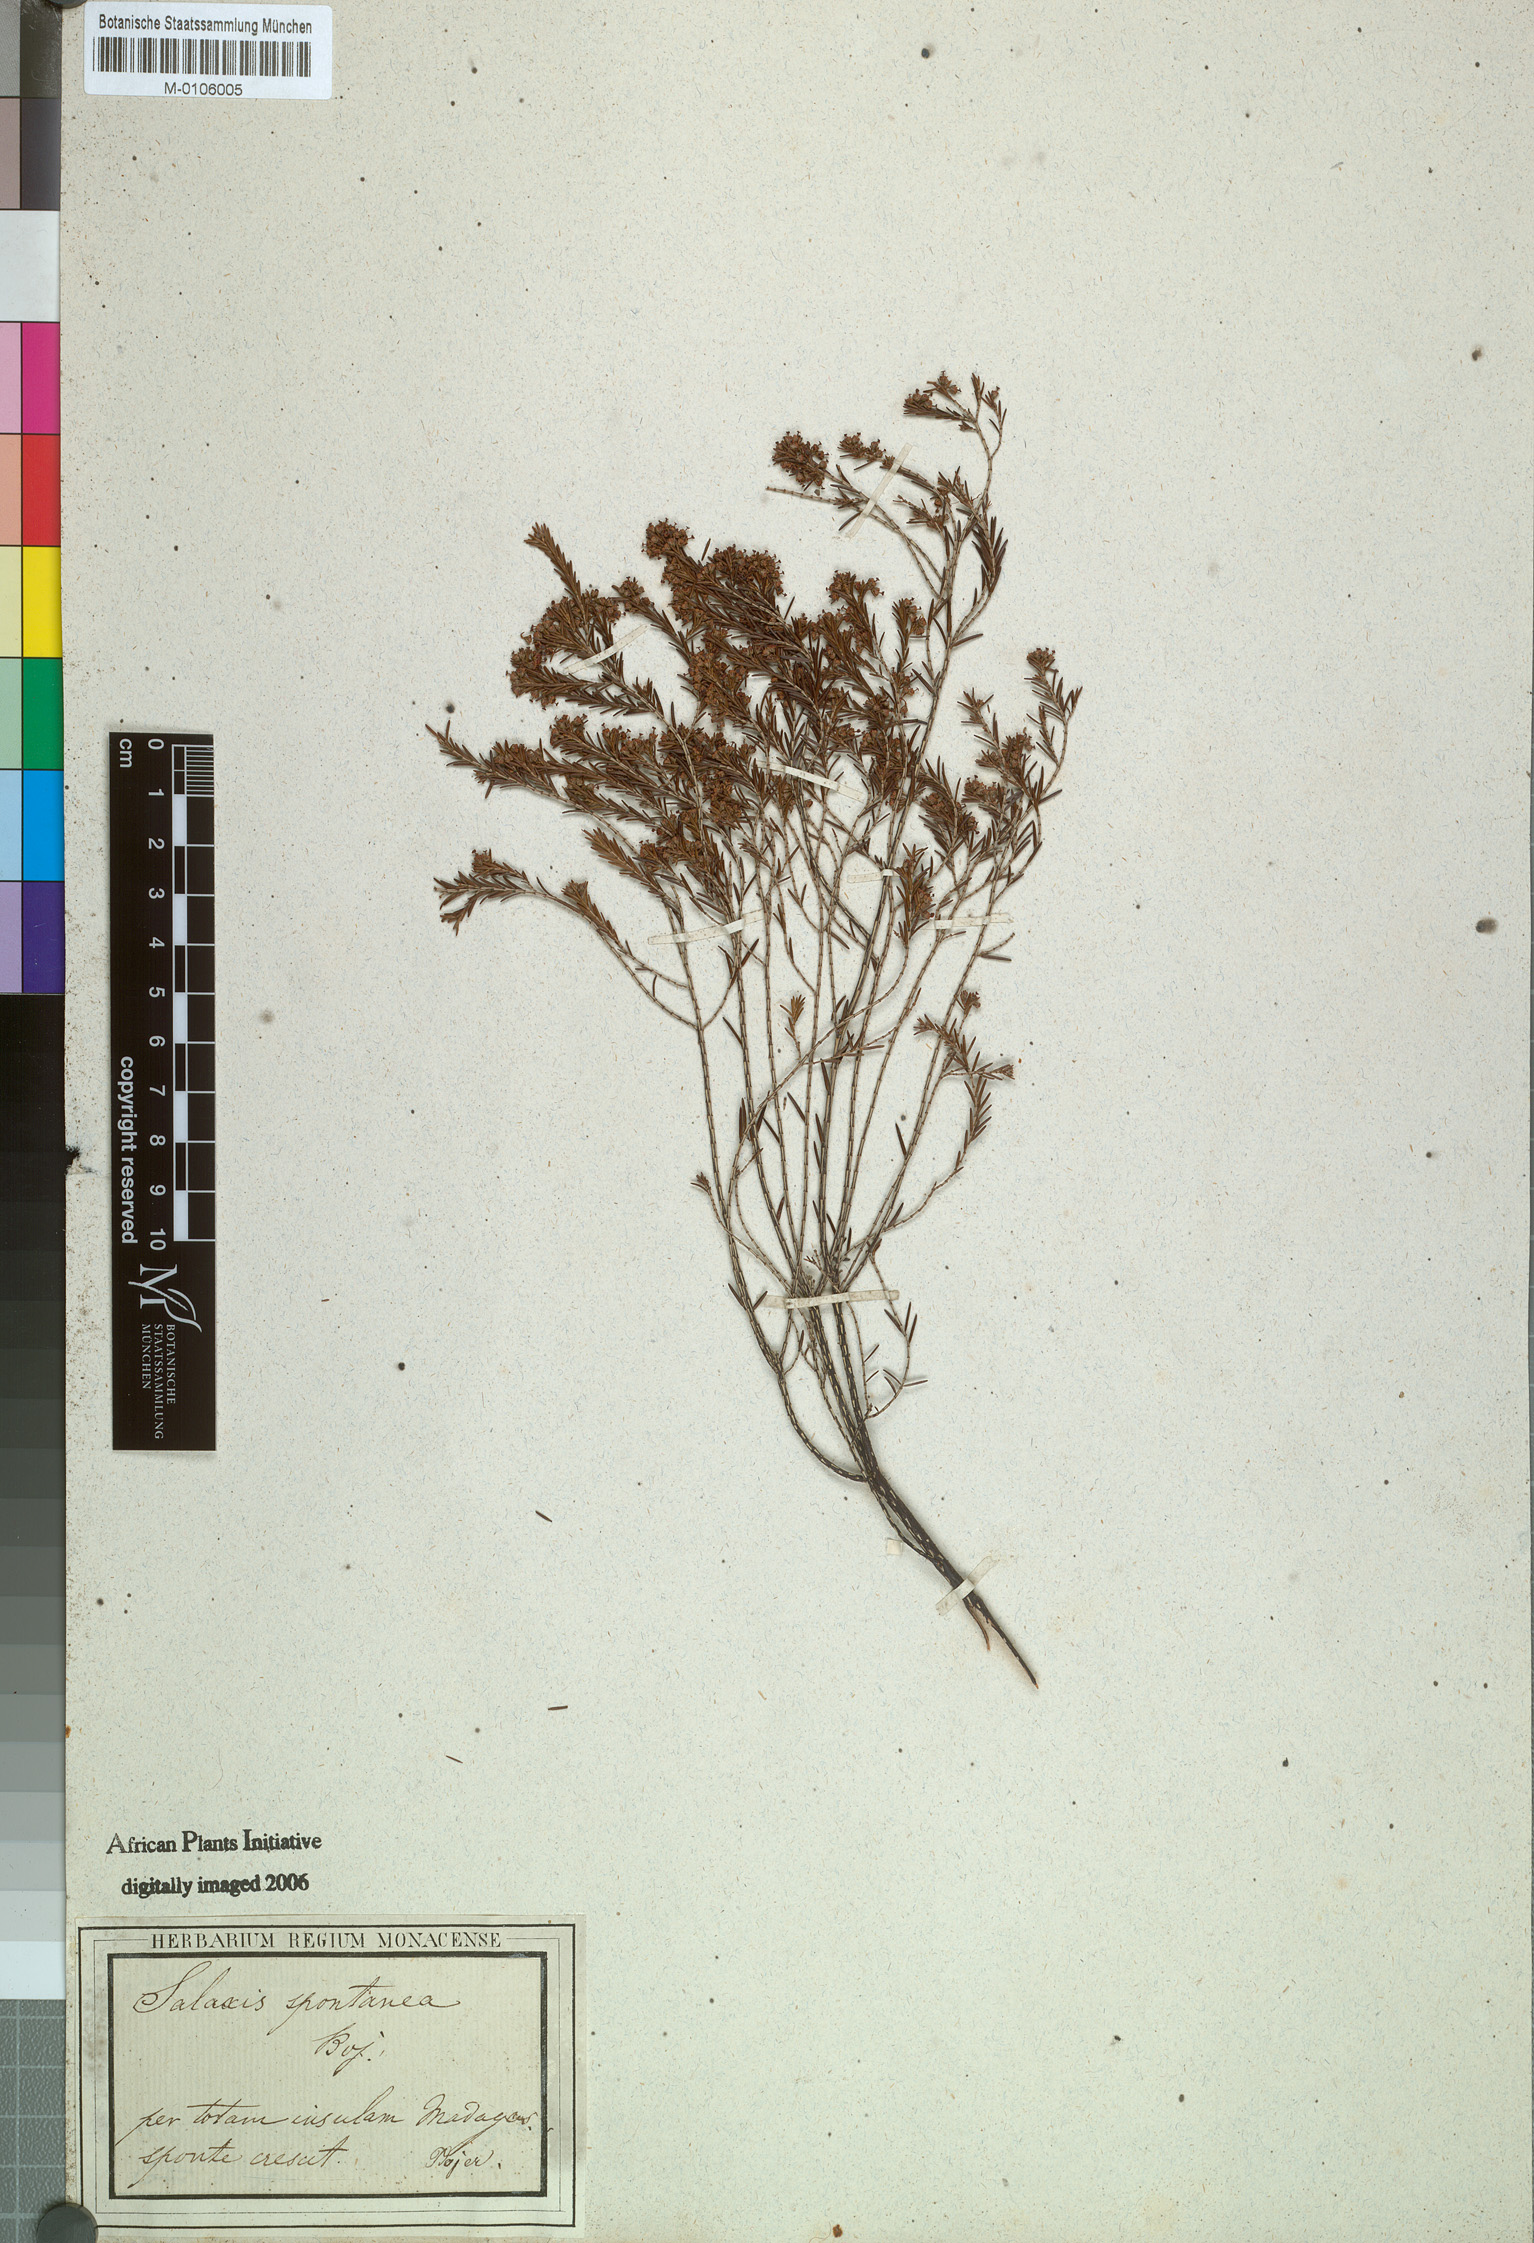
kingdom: Plantae
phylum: Tracheophyta
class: Magnoliopsida
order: Ericales
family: Ericaceae
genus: Erica
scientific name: Erica
